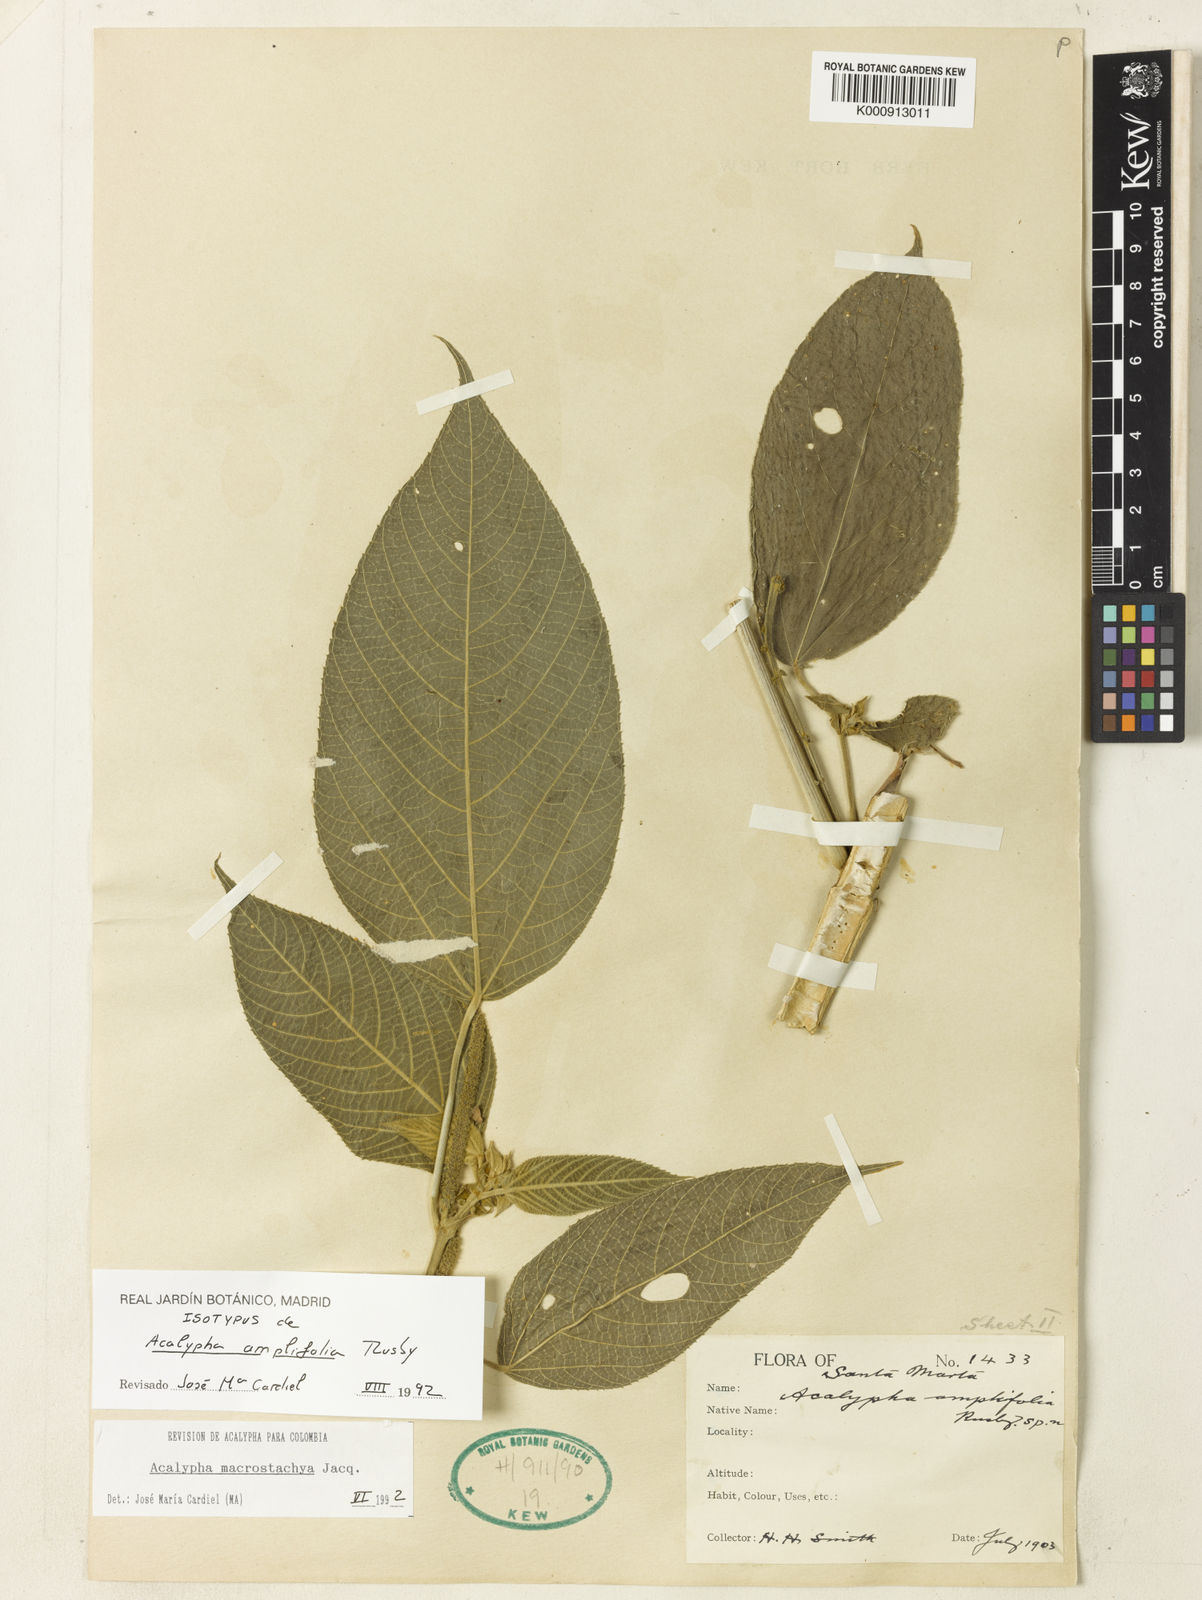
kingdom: Plantae
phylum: Tracheophyta
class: Magnoliopsida
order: Malpighiales
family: Euphorbiaceae
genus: Acalypha
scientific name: Acalypha macrostachya
